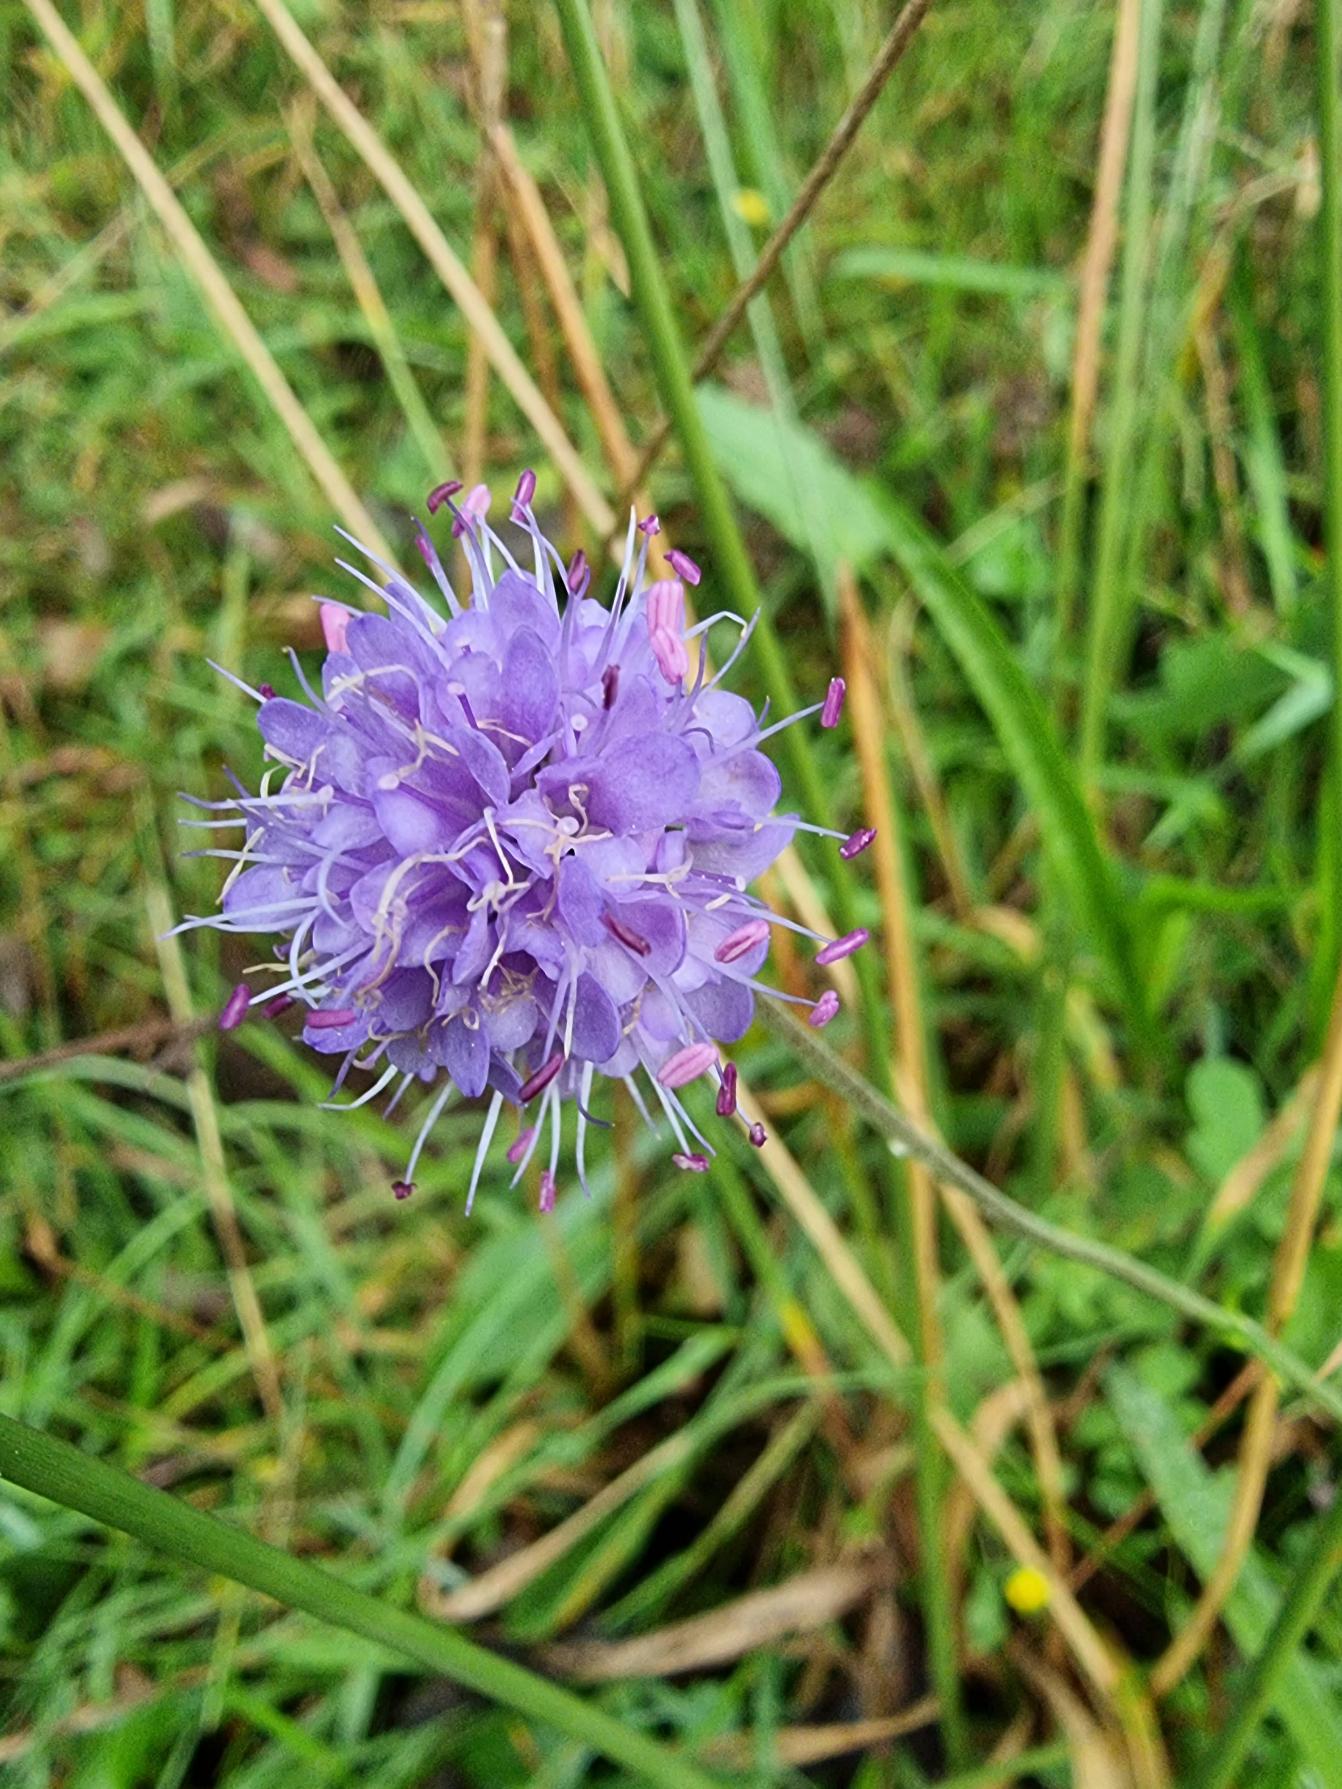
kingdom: Plantae
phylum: Tracheophyta
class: Magnoliopsida
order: Dipsacales
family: Caprifoliaceae
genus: Succisa
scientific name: Succisa pratensis
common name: Djævelsbid
